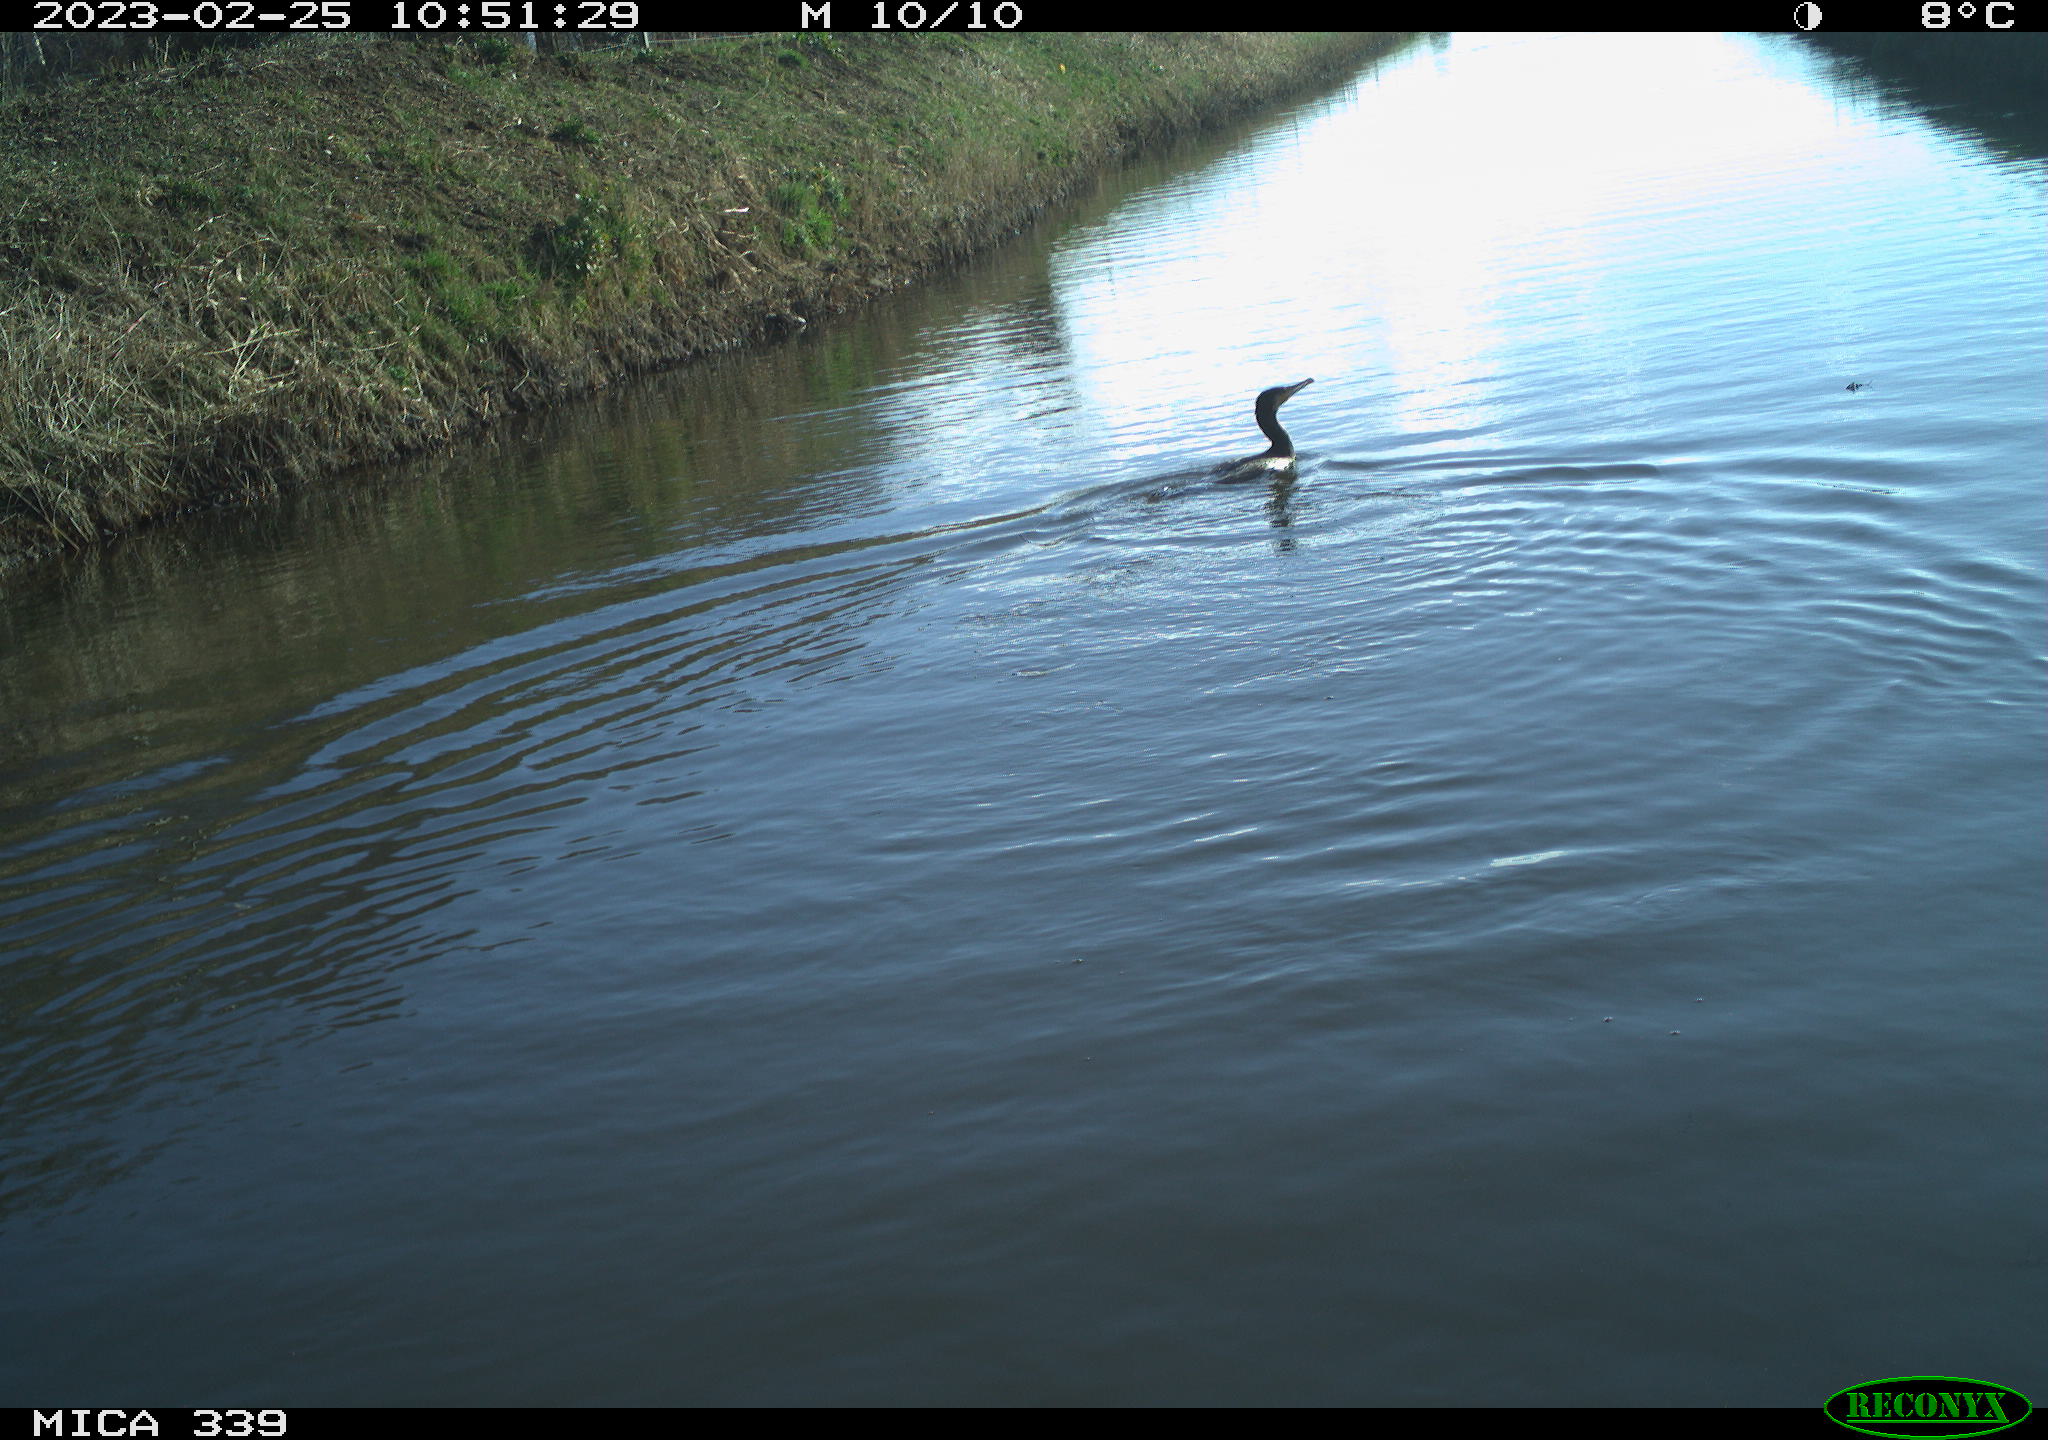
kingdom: Animalia
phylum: Chordata
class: Aves
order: Suliformes
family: Phalacrocoracidae
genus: Phalacrocorax
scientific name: Phalacrocorax carbo
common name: Great cormorant
